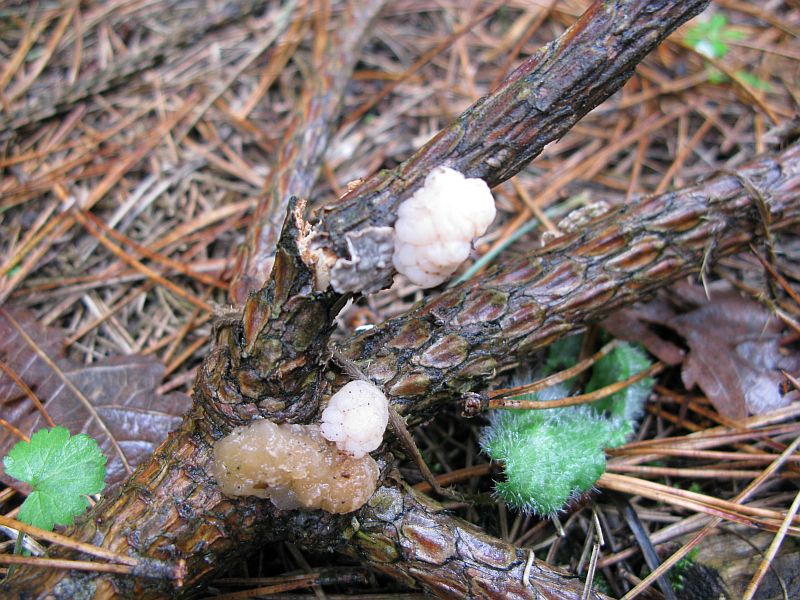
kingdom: Fungi
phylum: Basidiomycota
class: Tremellomycetes
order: Tremellales
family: Naemateliaceae
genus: Naematelia
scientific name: Naematelia encephala
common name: fyrre-bævresvamp
